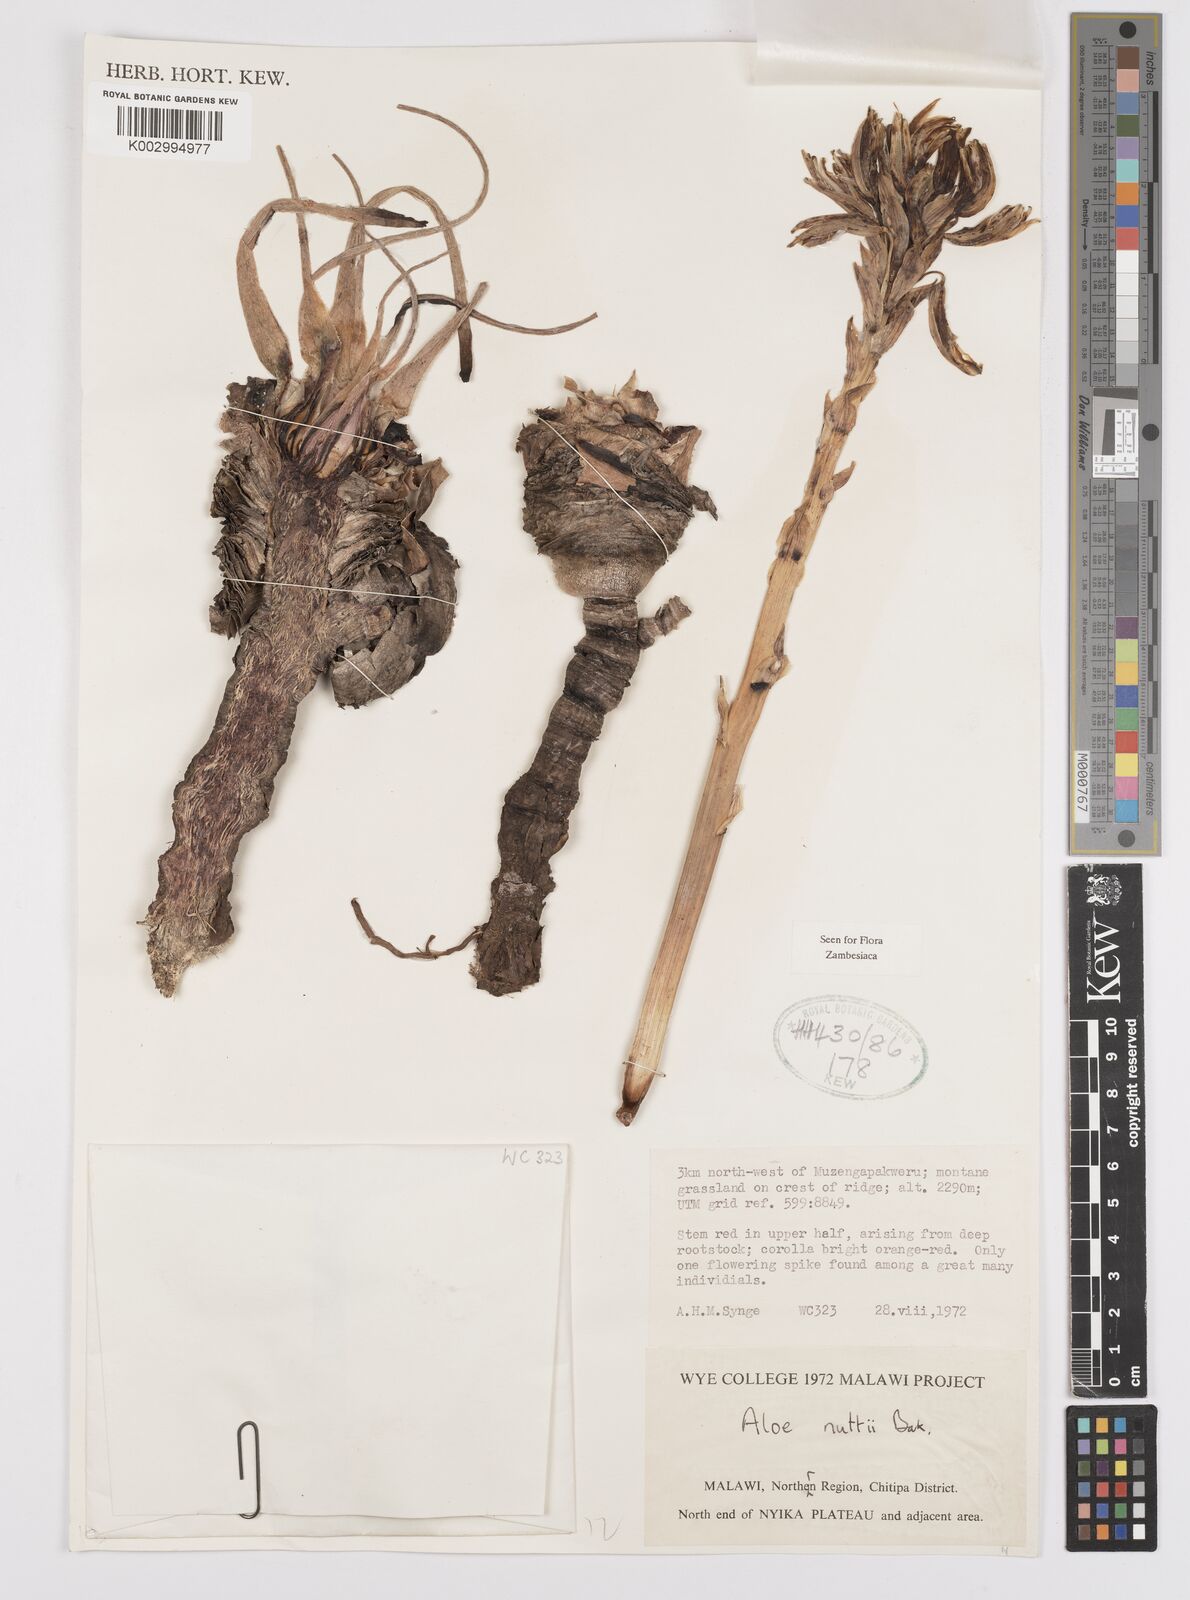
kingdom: Plantae
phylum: Tracheophyta
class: Liliopsida
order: Asparagales
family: Asphodelaceae
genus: Aloe
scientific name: Aloe nuttii
